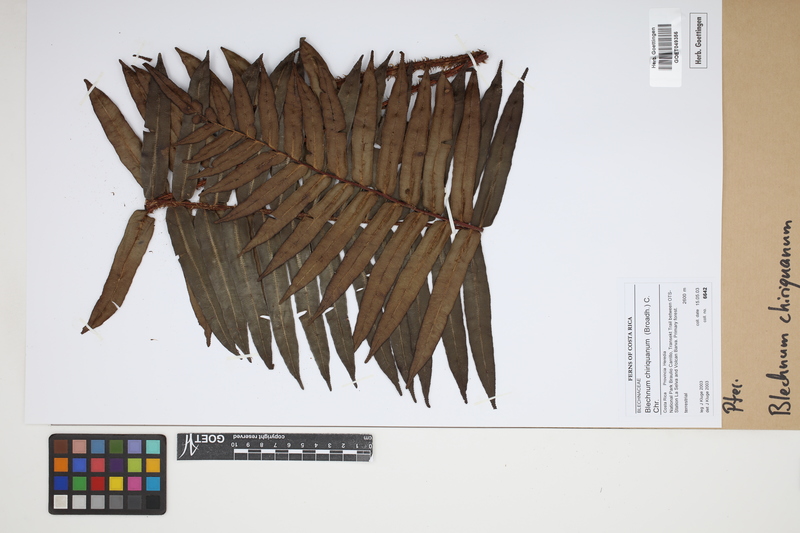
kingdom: Plantae
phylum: Tracheophyta
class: Polypodiopsida
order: Polypodiales
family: Blechnaceae
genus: Parablechnum
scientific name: Parablechnum chiriquanum
